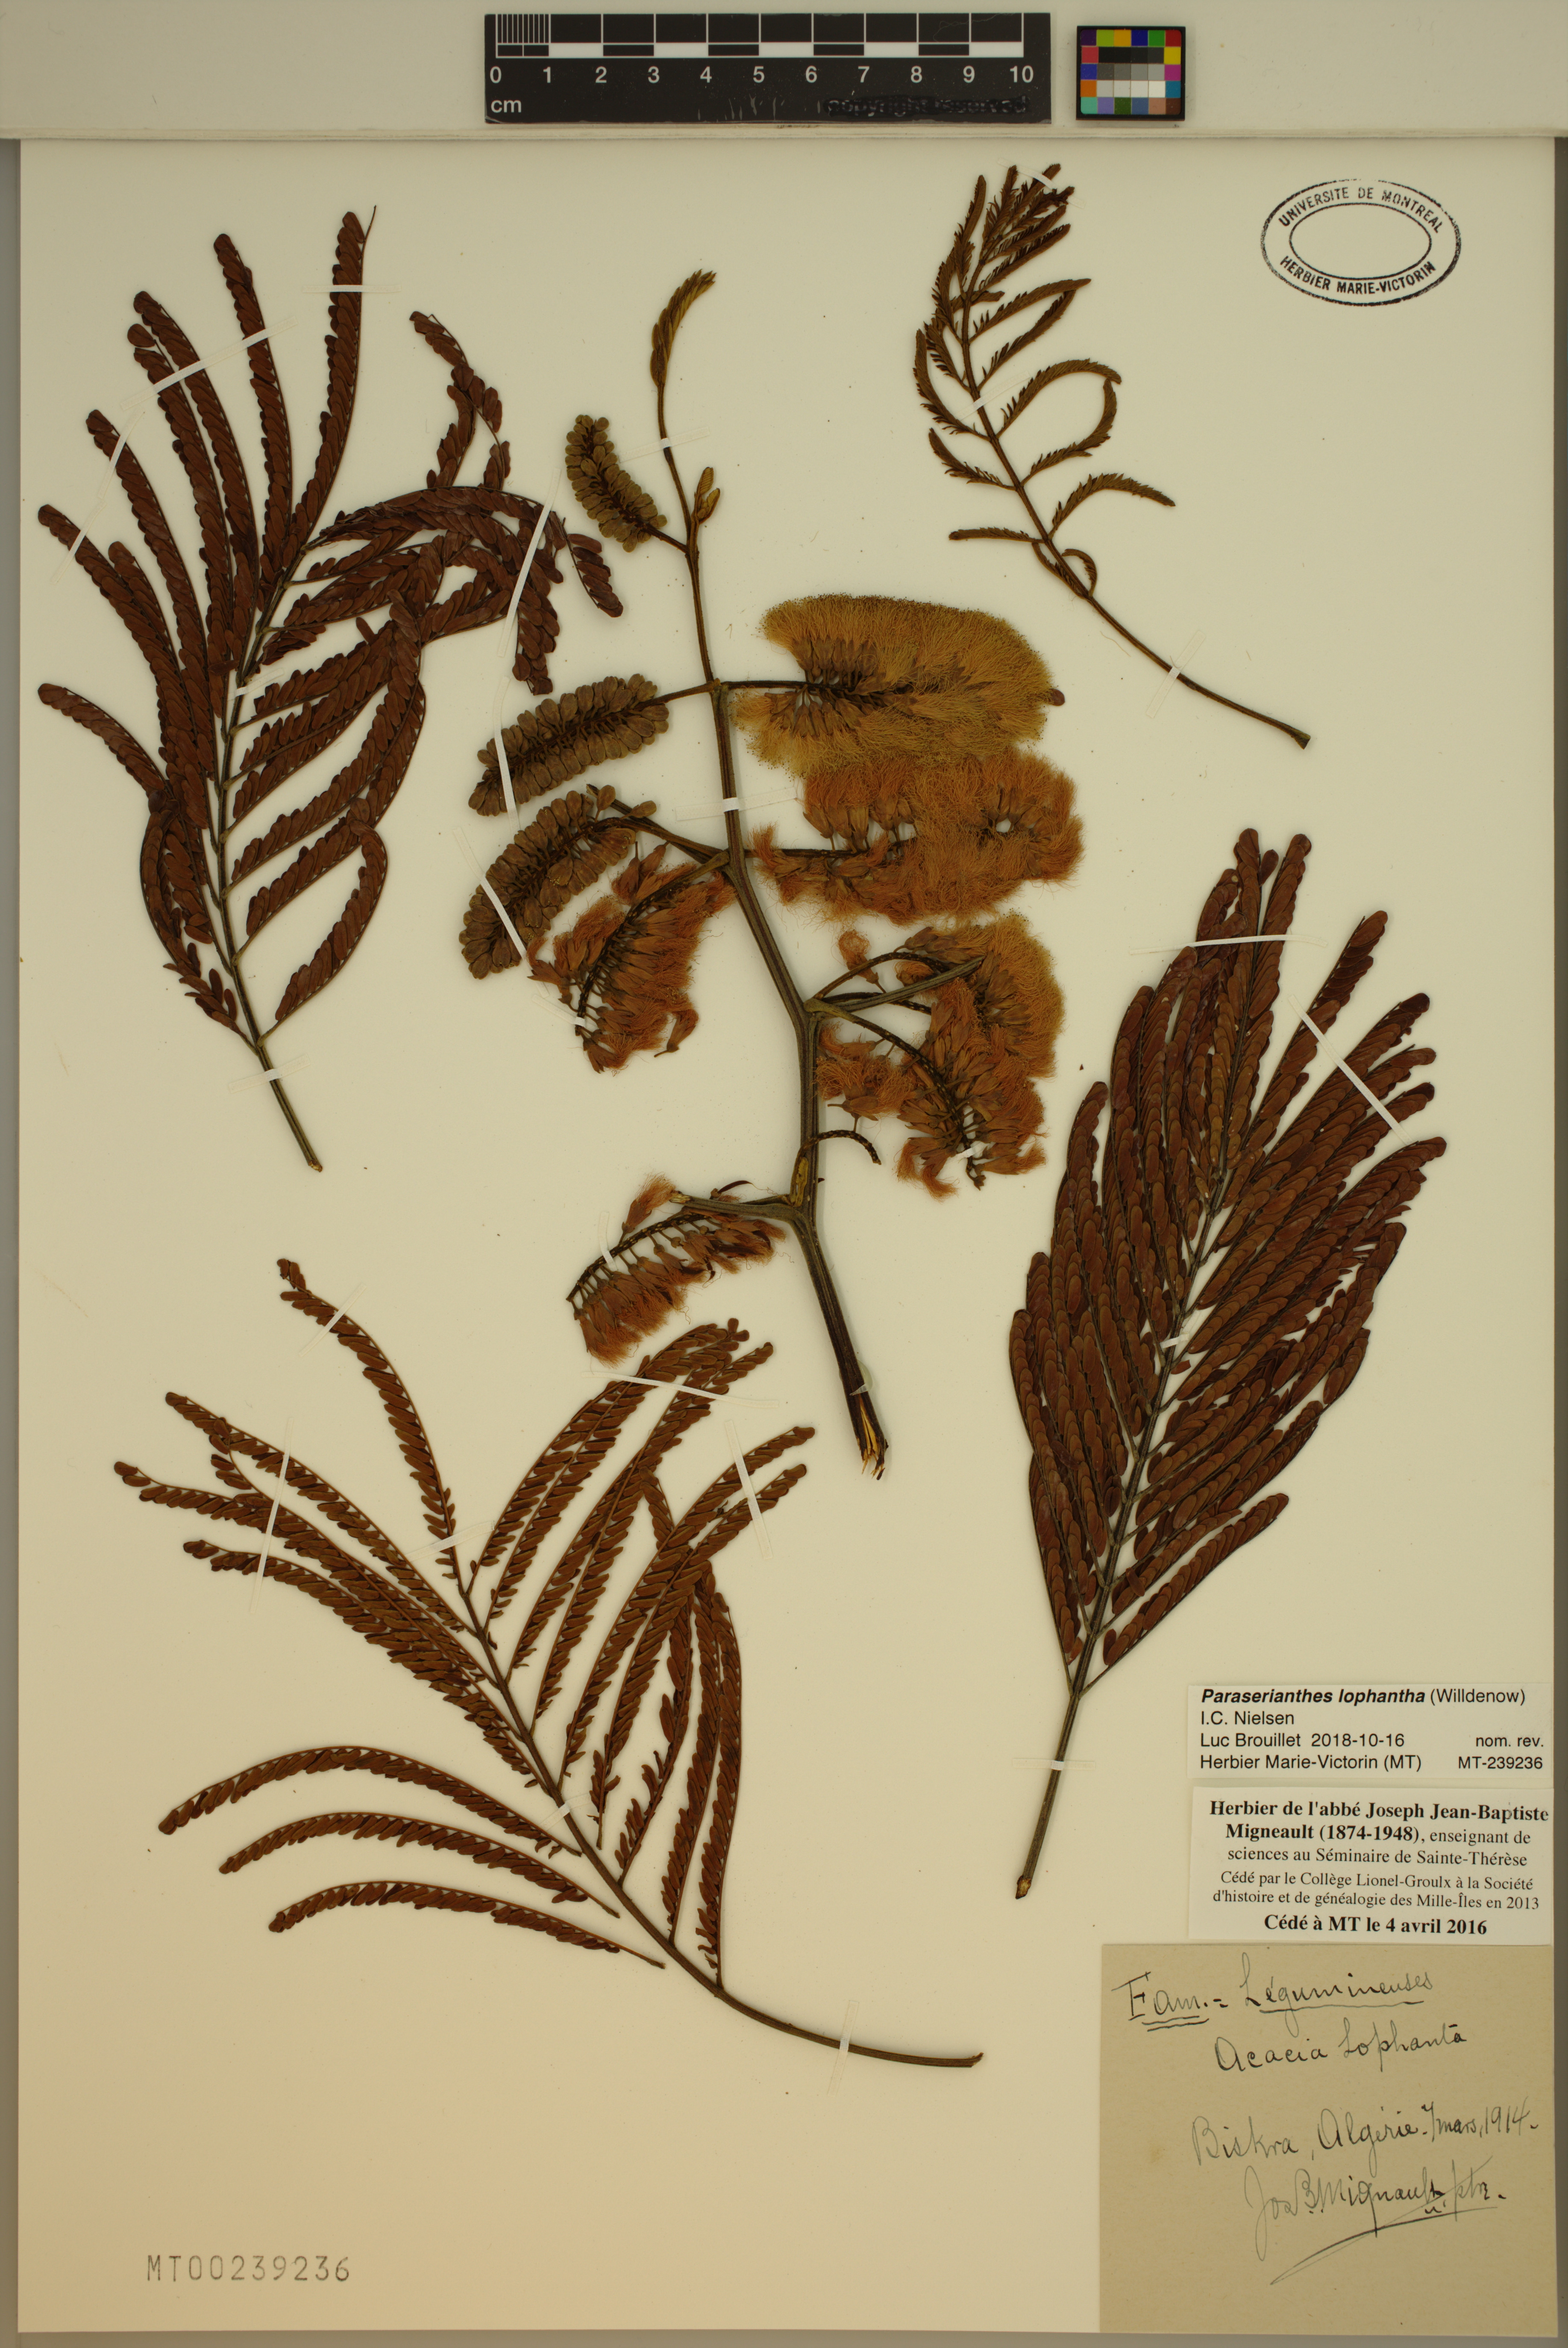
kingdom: Plantae
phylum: Tracheophyta
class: Magnoliopsida
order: Fabales
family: Fabaceae
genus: Paraserianthes
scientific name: Paraserianthes lophantha
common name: Plume albizia
